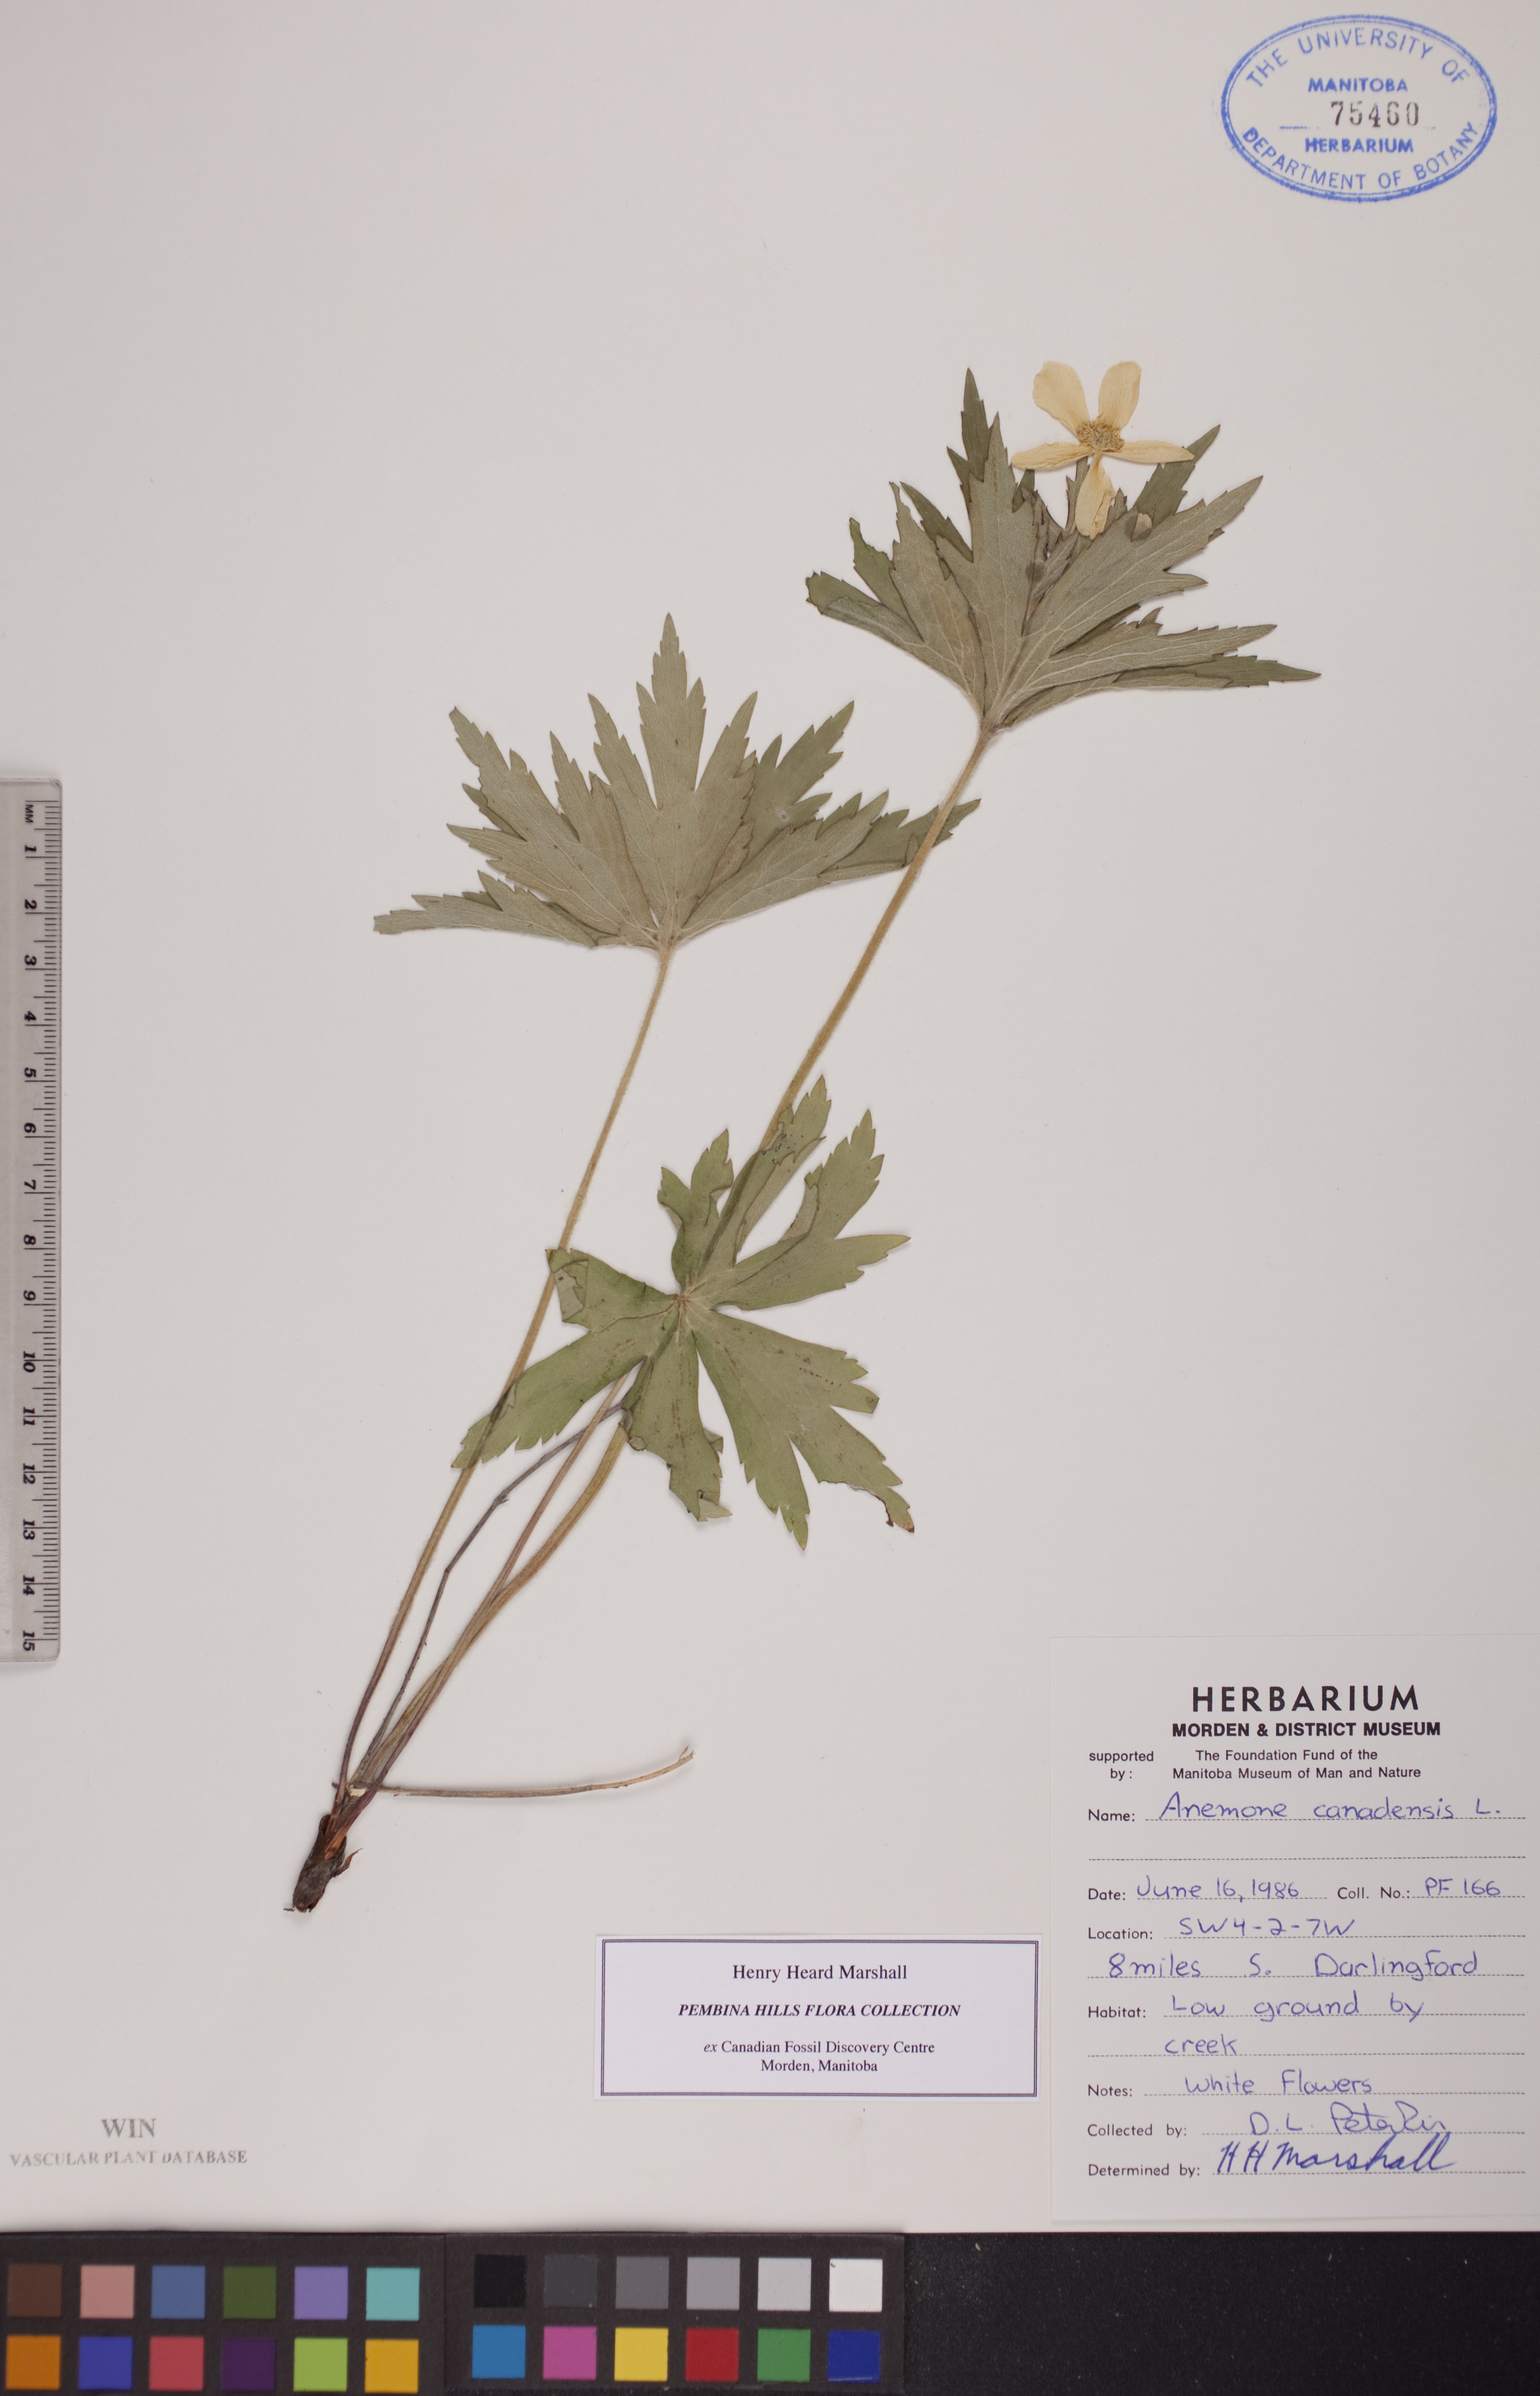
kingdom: Plantae
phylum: Tracheophyta
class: Magnoliopsida
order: Ranunculales
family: Ranunculaceae
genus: Anemonastrum
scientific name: Anemonastrum canadense
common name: Canada anemone
